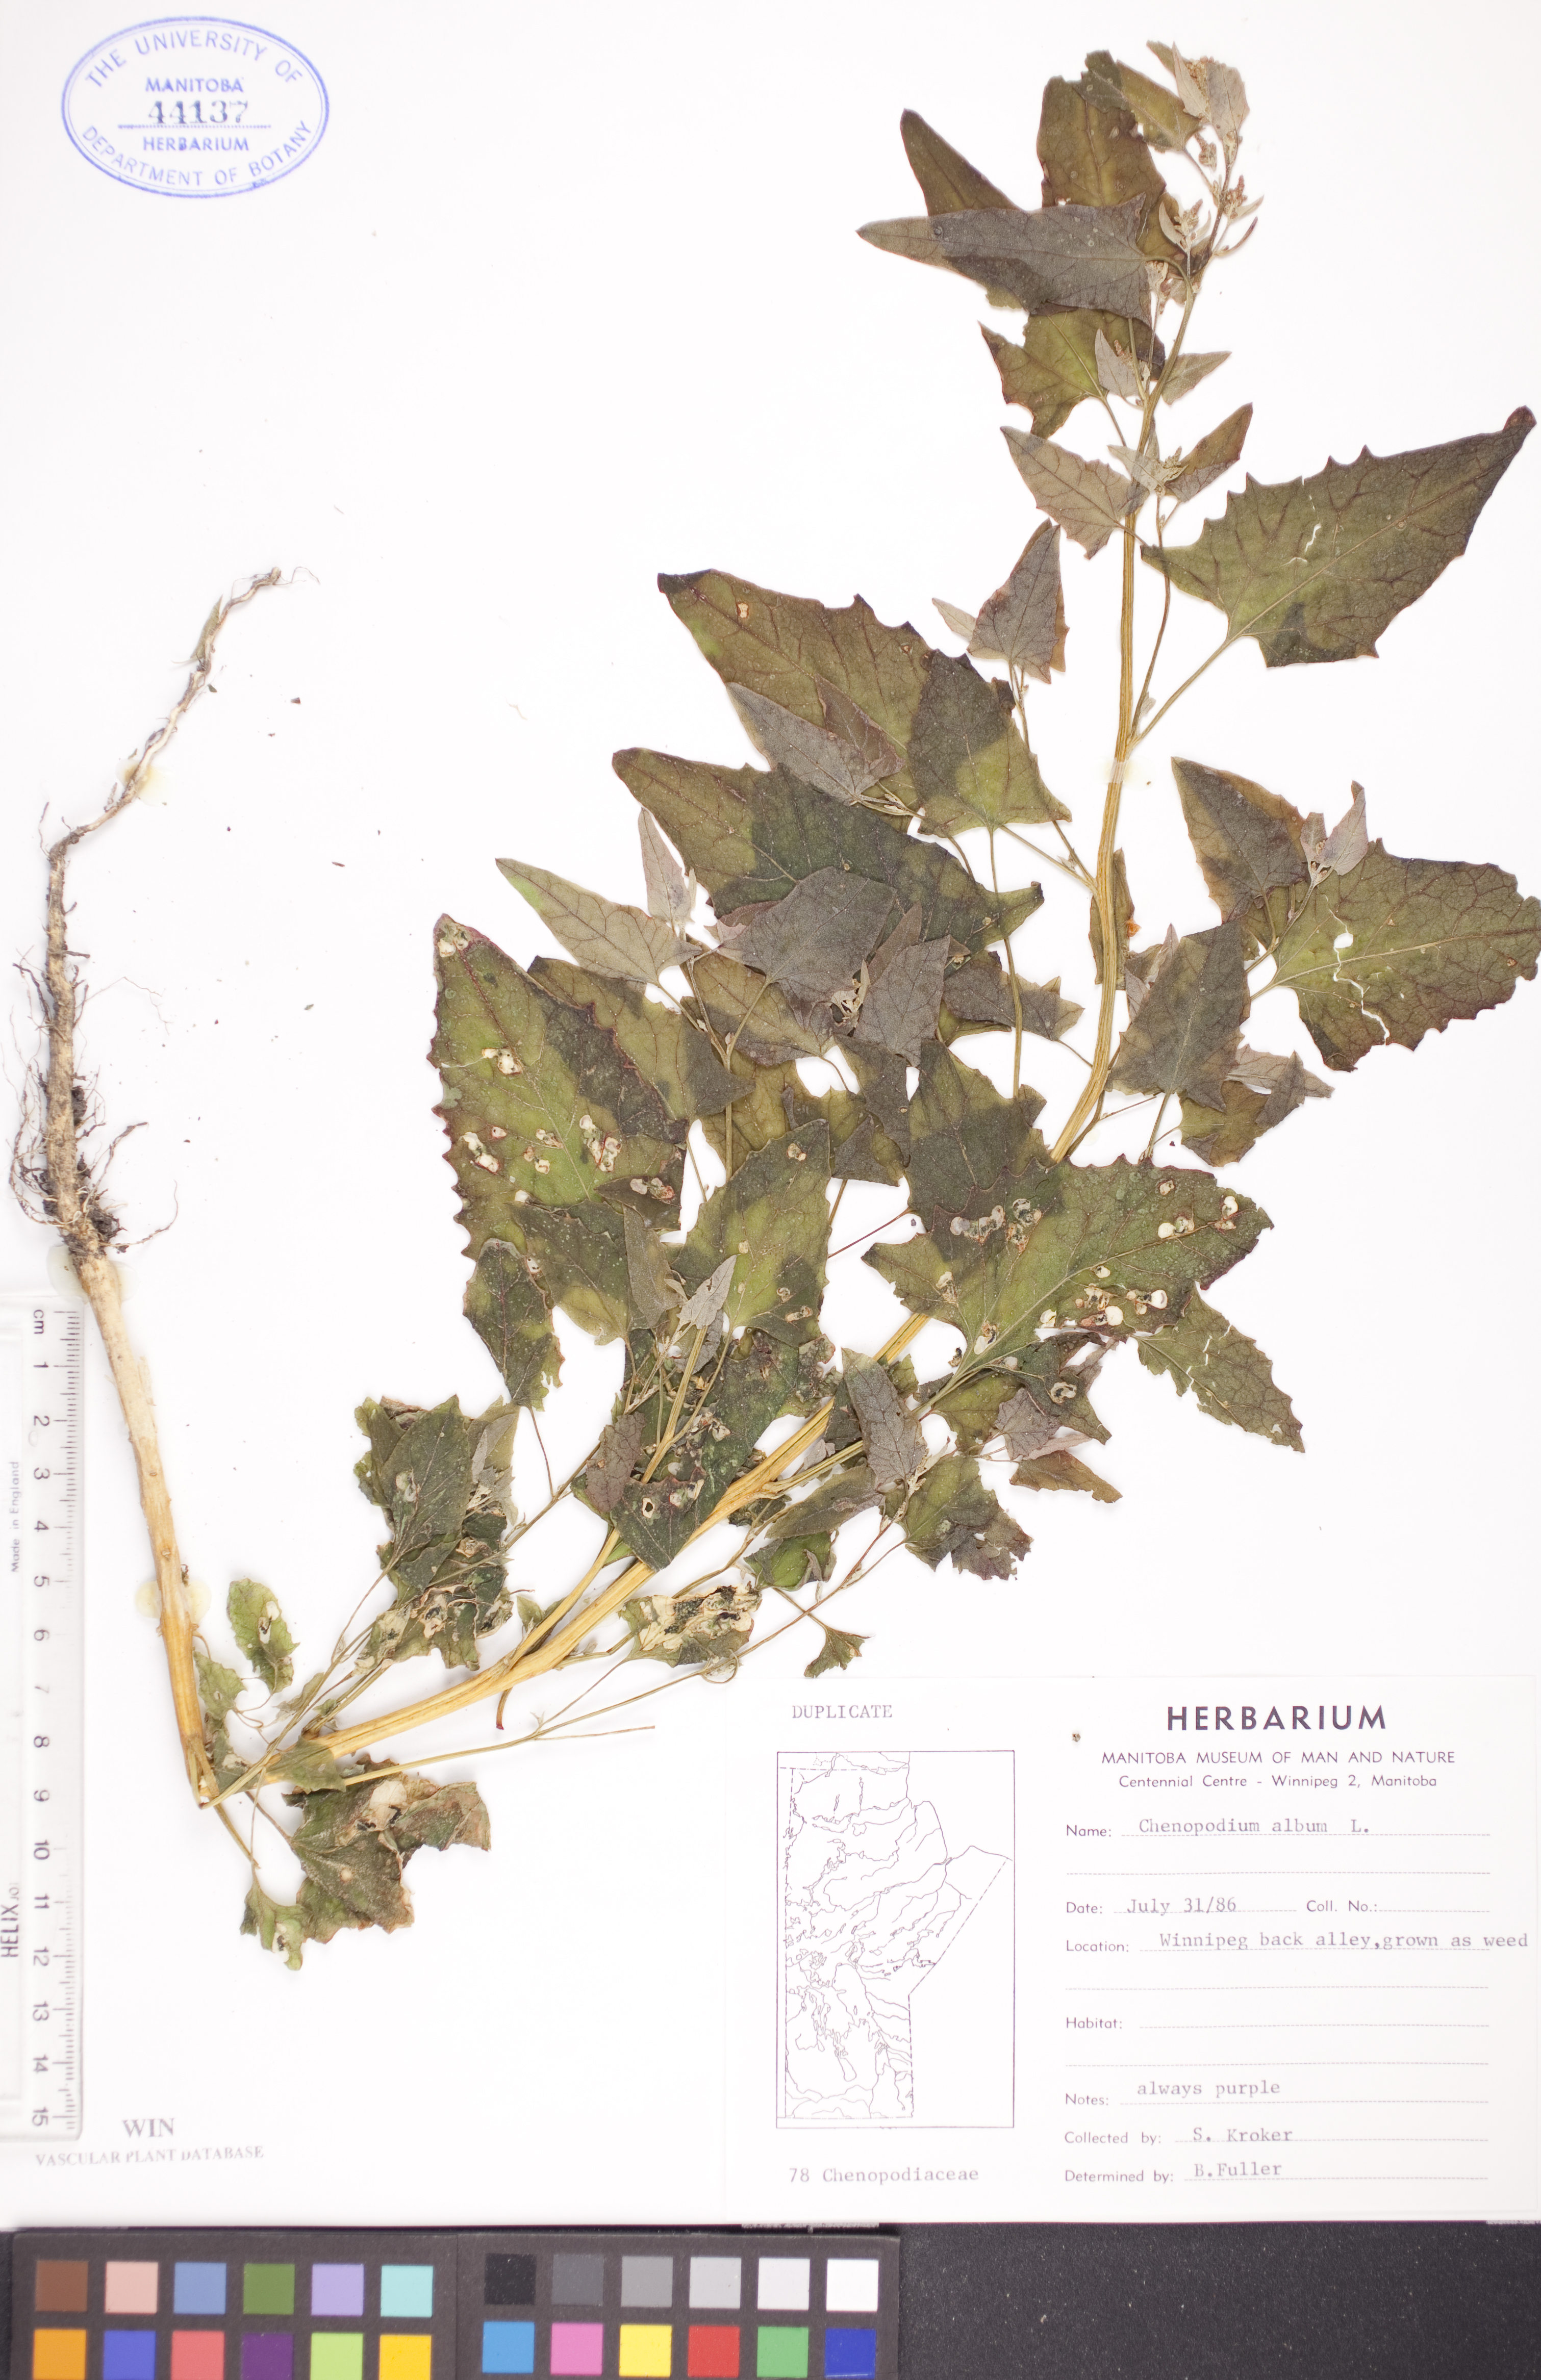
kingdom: Plantae
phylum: Tracheophyta
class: Magnoliopsida
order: Caryophyllales
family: Amaranthaceae
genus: Chenopodium
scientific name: Chenopodium album
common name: Fat-hen
